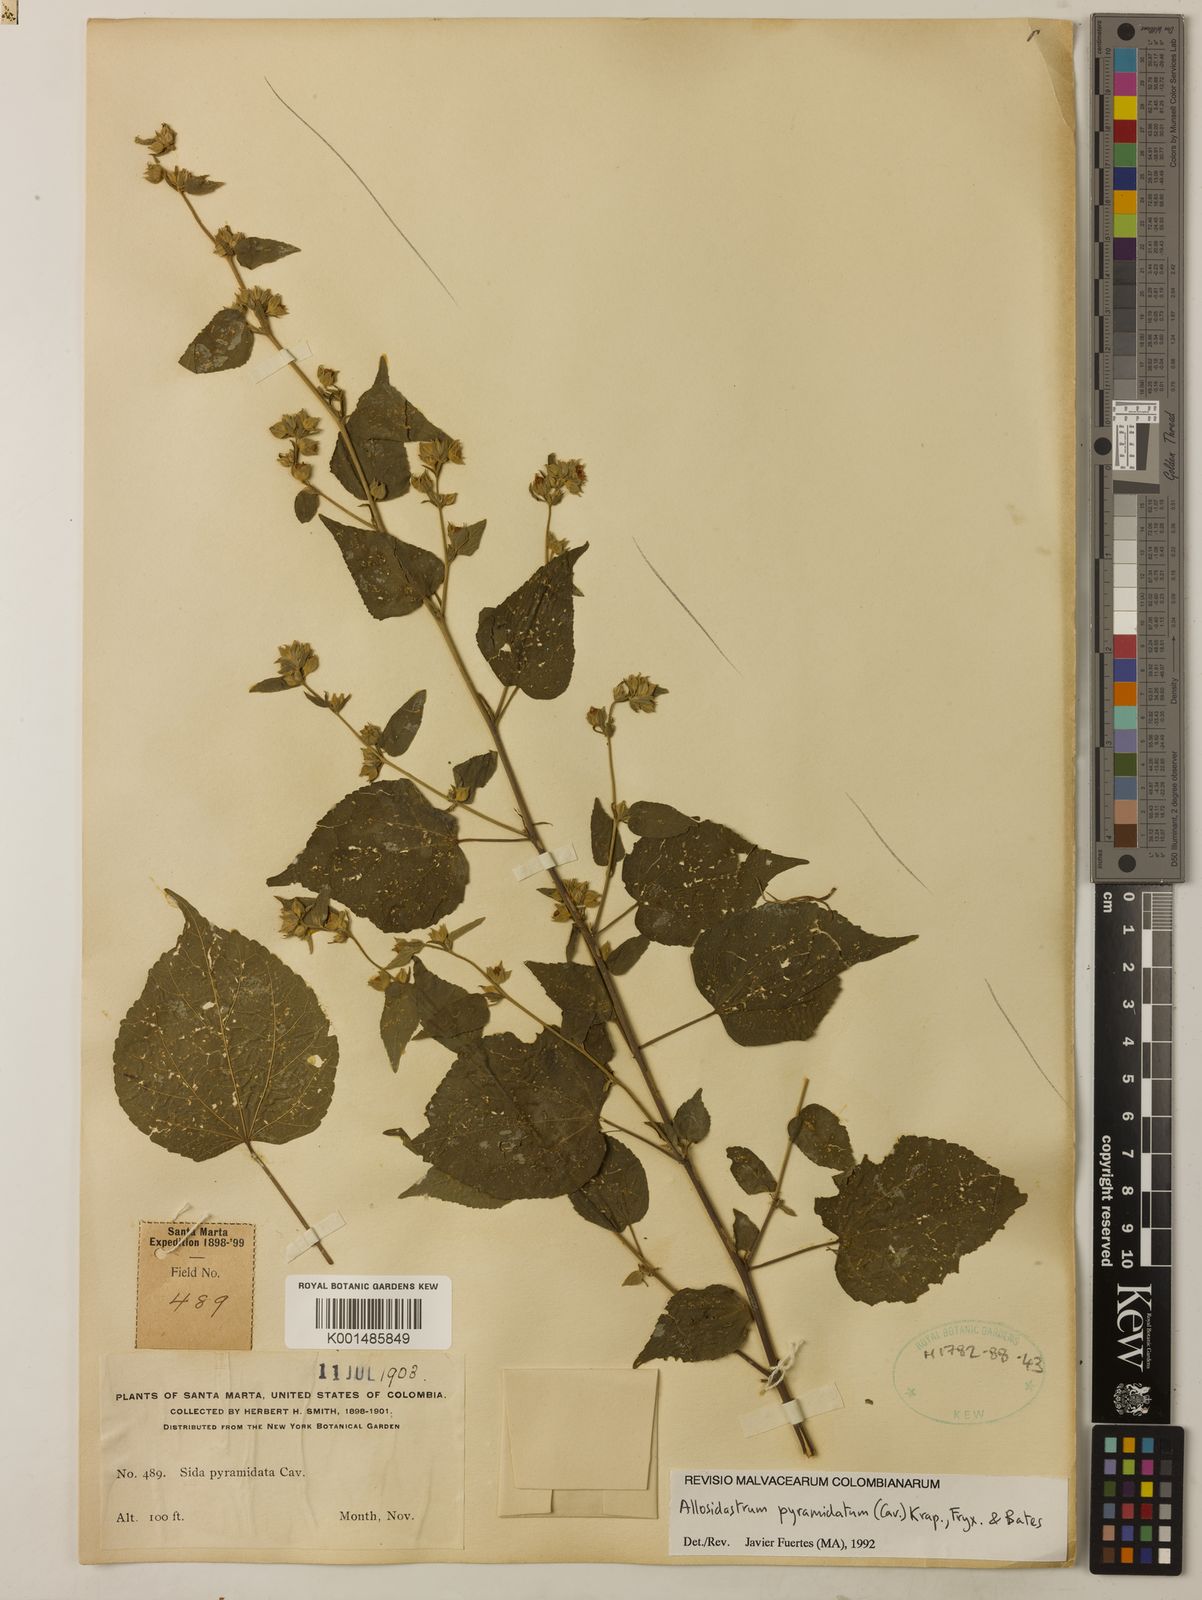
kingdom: Plantae
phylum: Tracheophyta
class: Magnoliopsida
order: Malvales
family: Malvaceae
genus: Allosidastrum
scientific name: Allosidastrum pyramidatum
